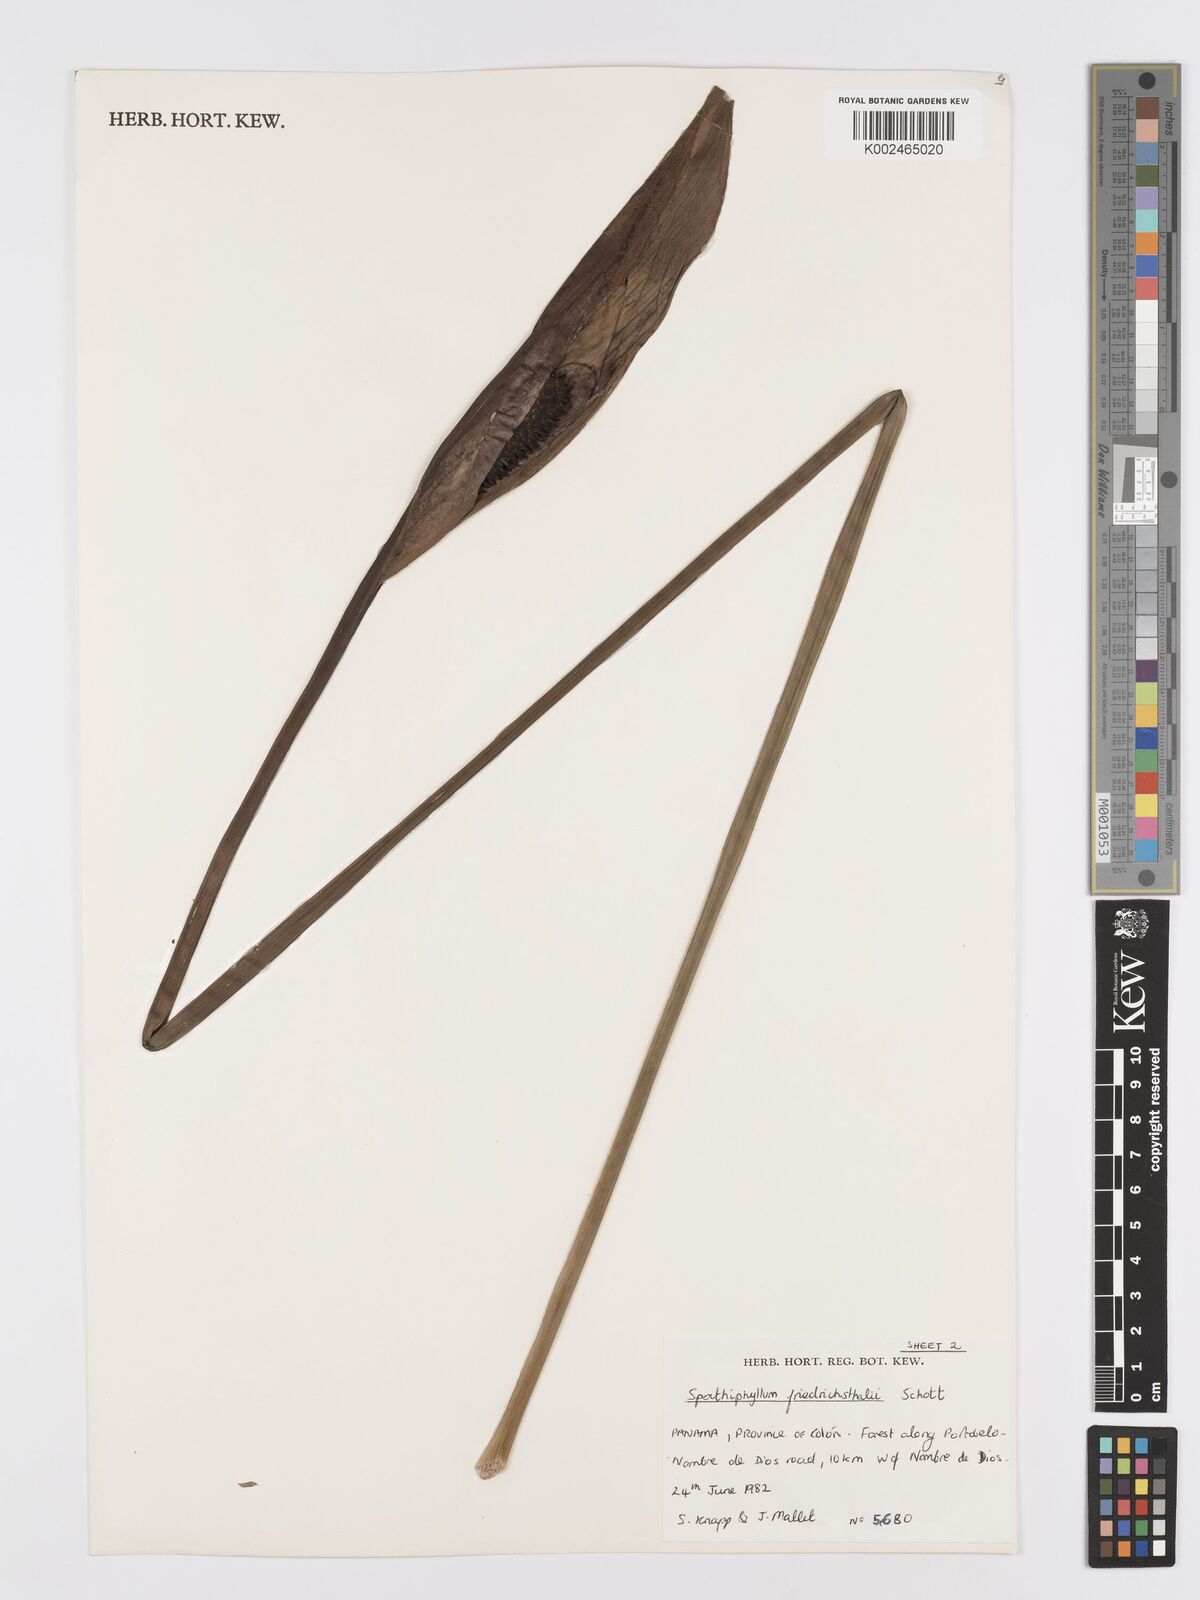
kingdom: Plantae
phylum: Tracheophyta
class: Liliopsida
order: Alismatales
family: Araceae
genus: Spathiphyllum
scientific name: Spathiphyllum friedrichsthalii
